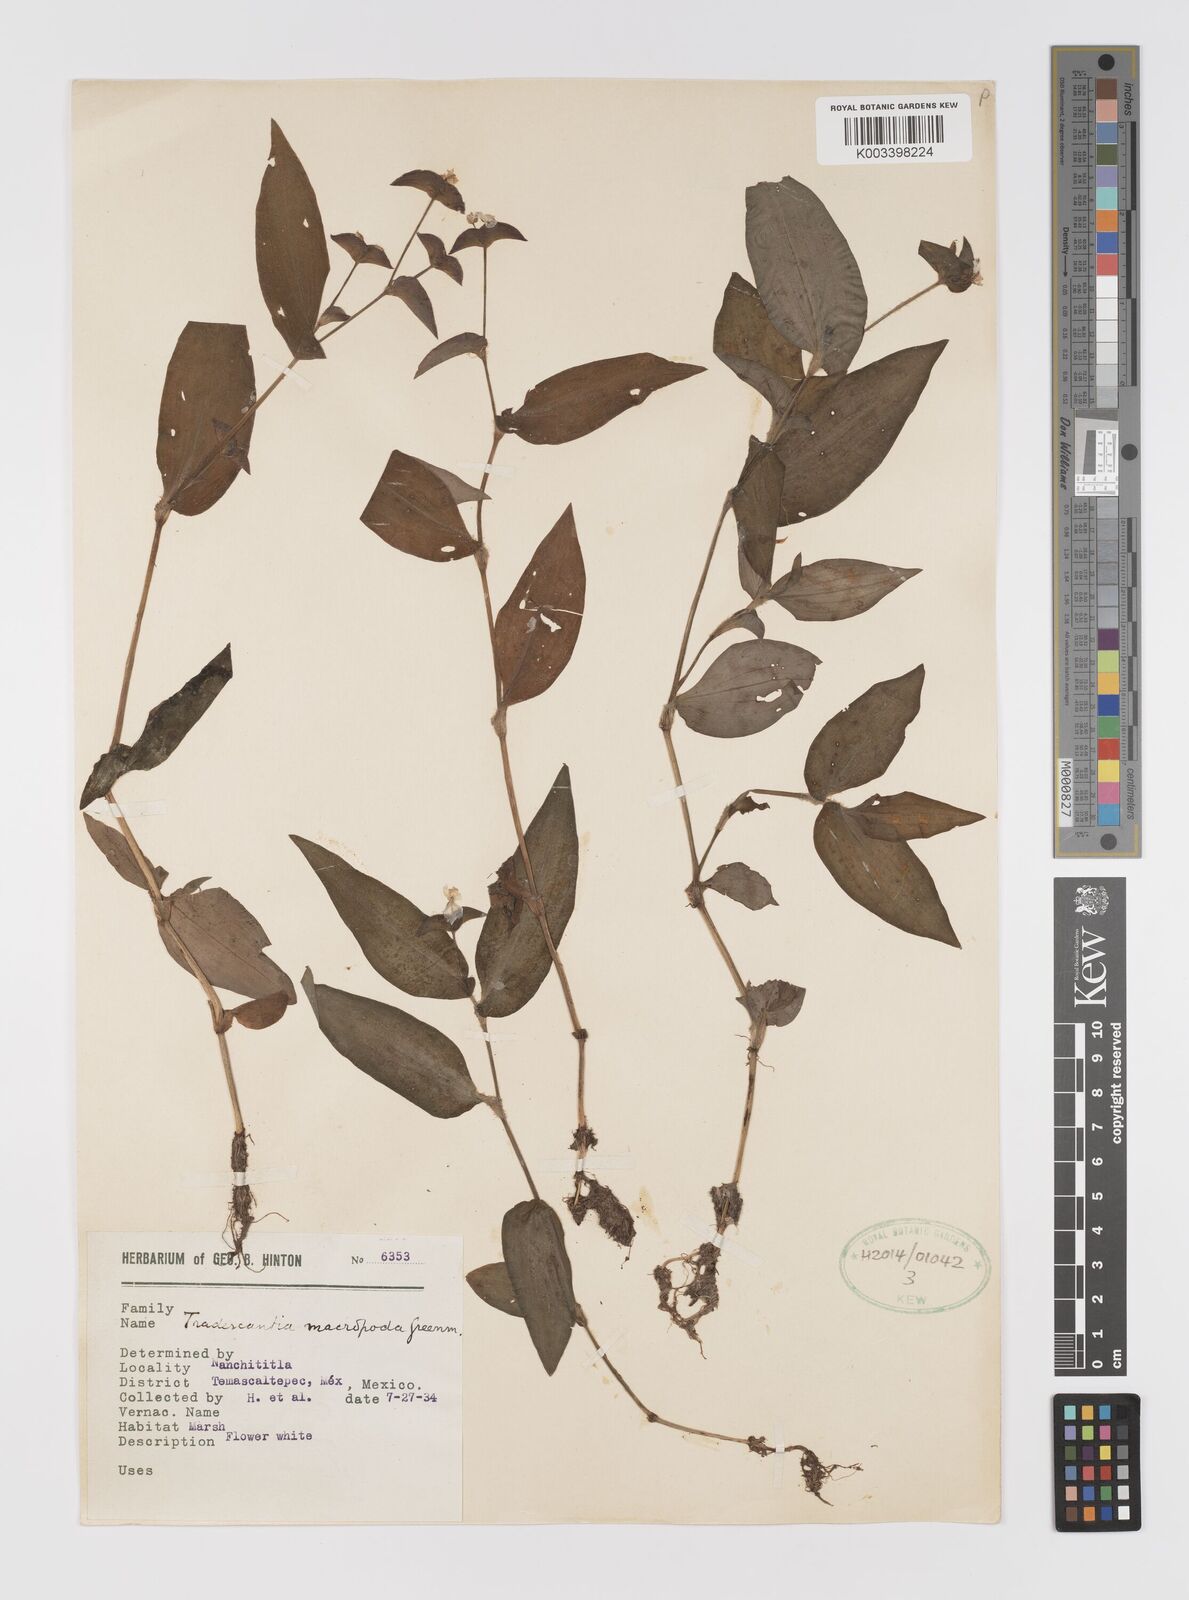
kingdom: Plantae
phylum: Tracheophyta
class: Liliopsida
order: Commelinales
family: Commelinaceae
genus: Tradescantia
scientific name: Tradescantia commelinoides
